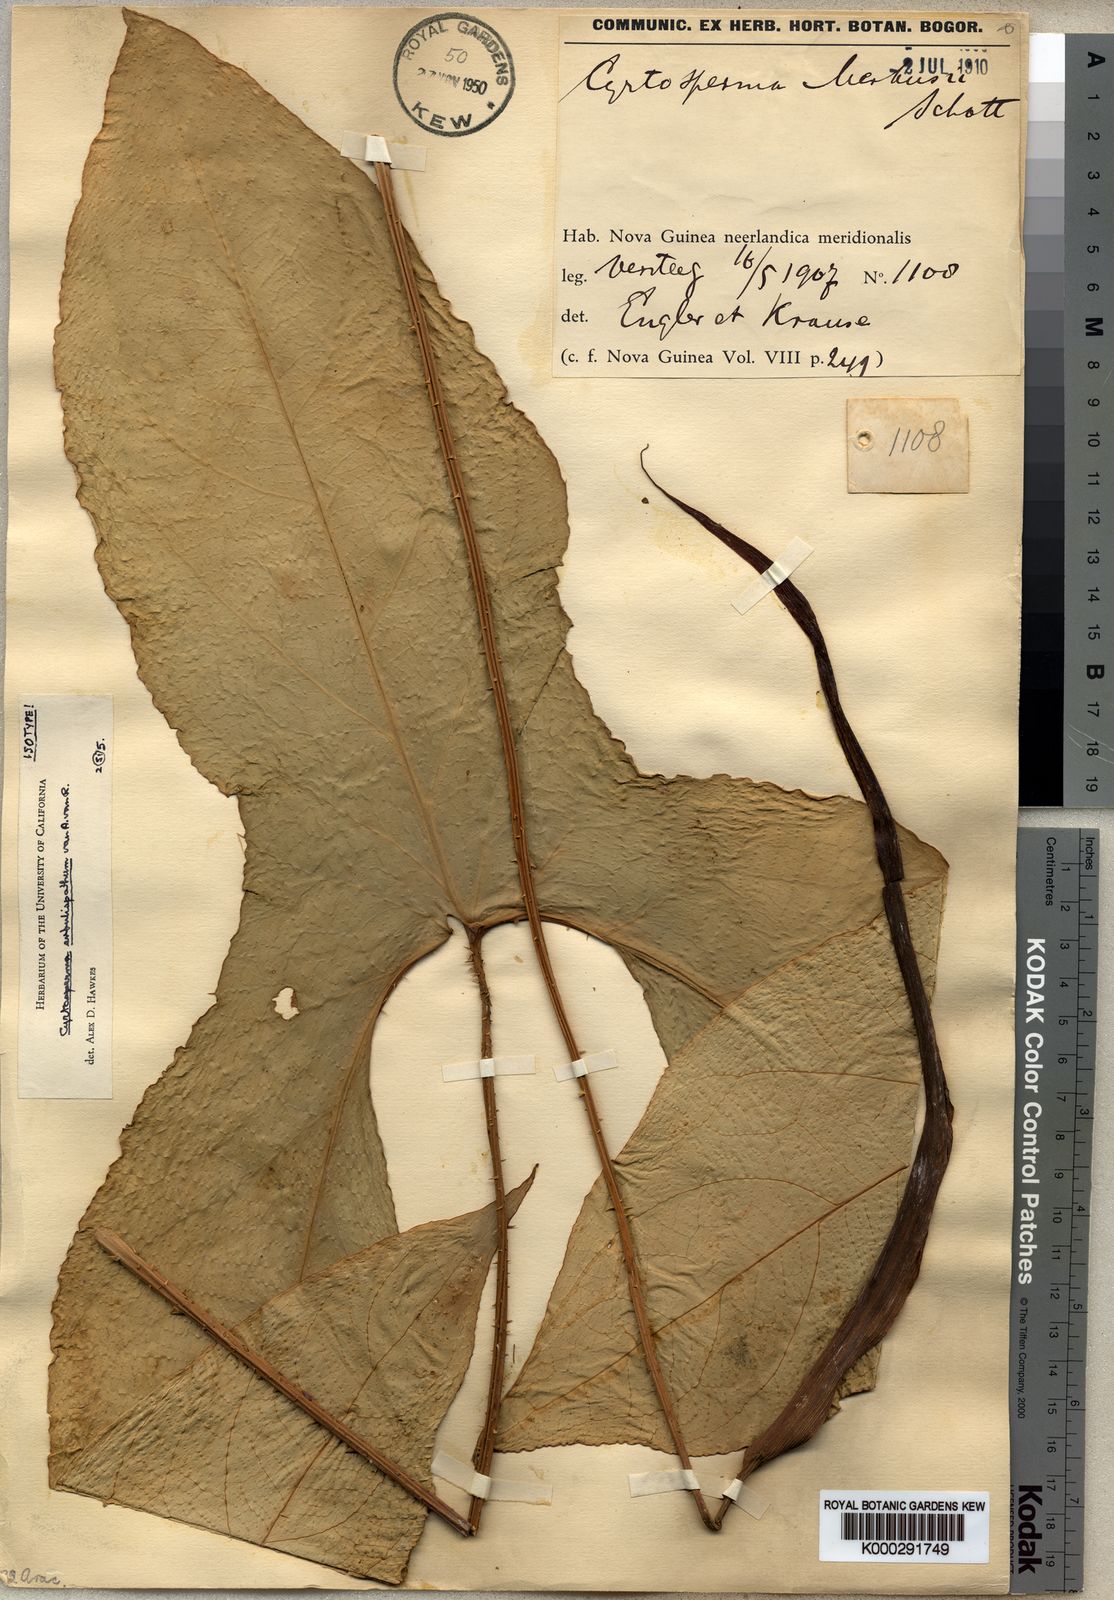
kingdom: Plantae
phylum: Tracheophyta
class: Liliopsida
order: Alismatales
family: Araceae
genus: Cyrtosperma
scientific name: Cyrtosperma macrotum
